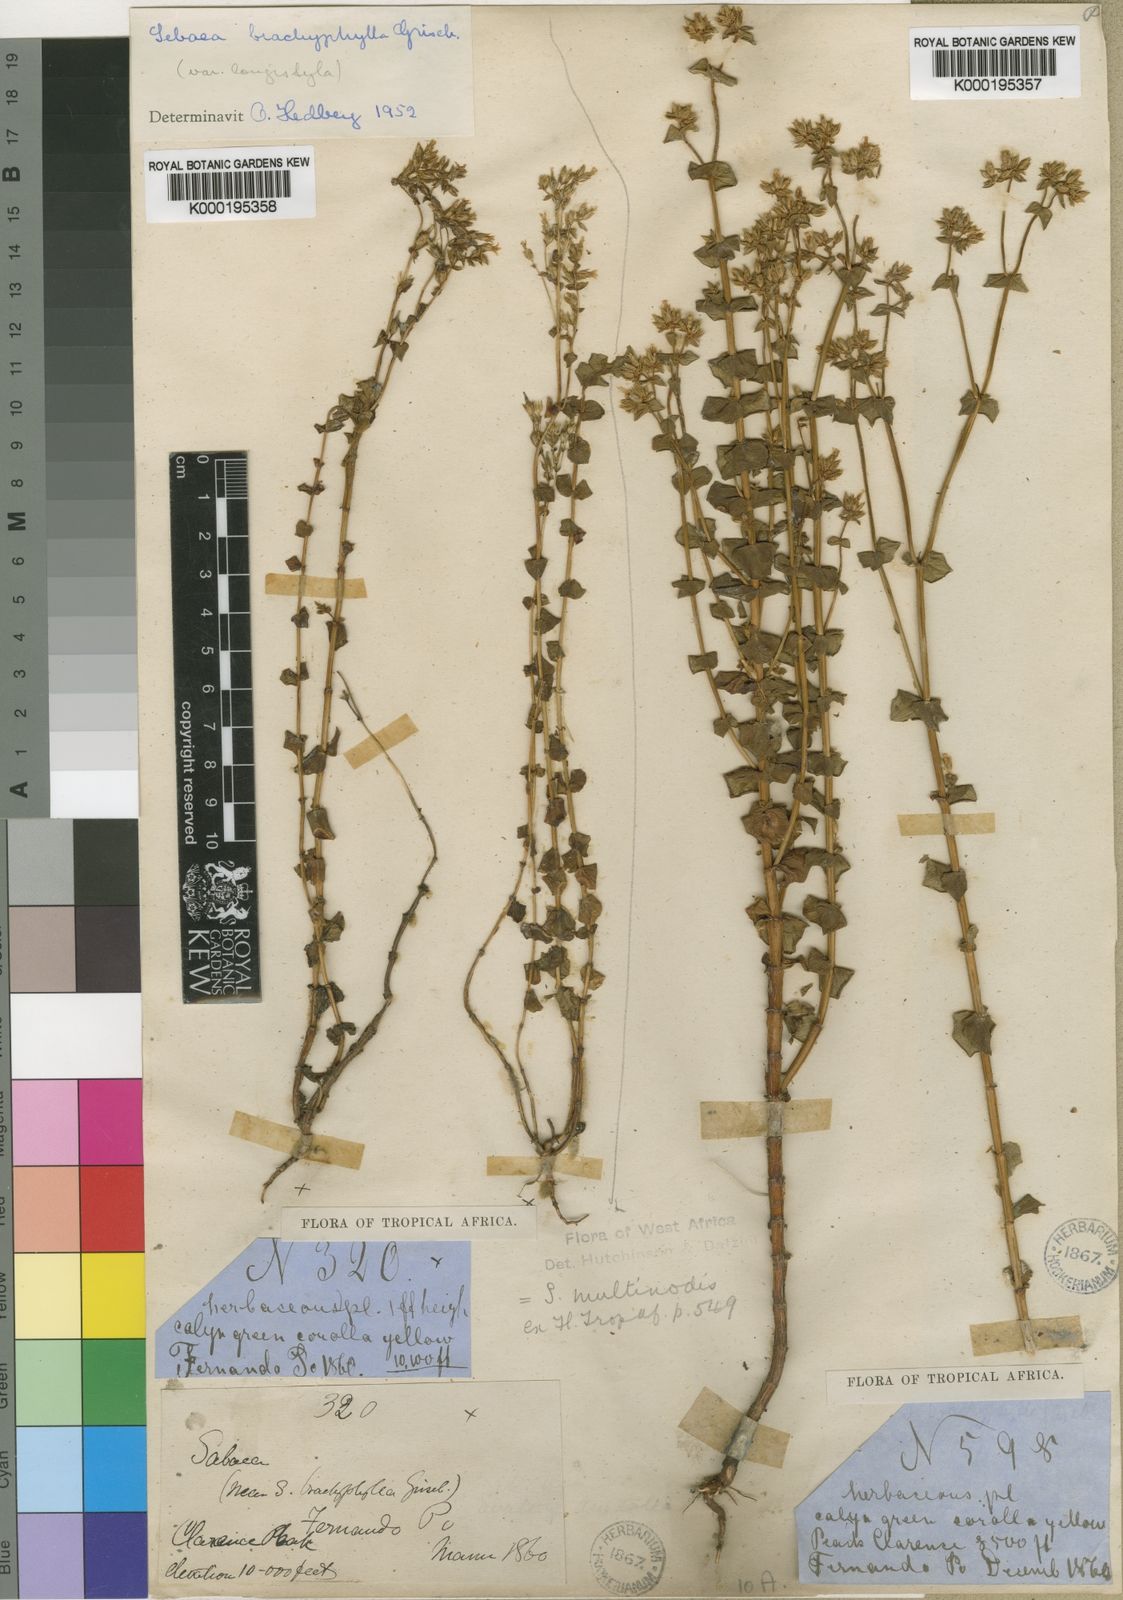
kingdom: Plantae
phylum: Tracheophyta
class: Magnoliopsida
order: Gentianales
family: Gentianaceae
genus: Sebaea
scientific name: Sebaea brachyphylla
